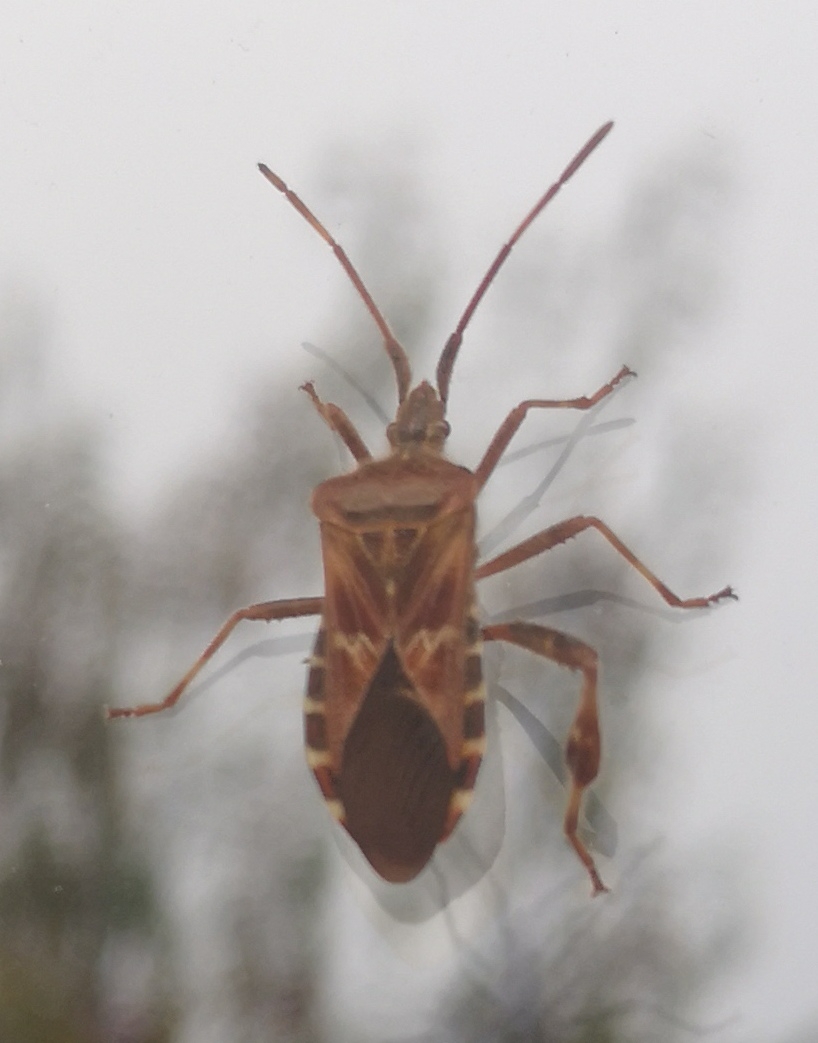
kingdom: Animalia
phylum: Arthropoda
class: Insecta
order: Hemiptera
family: Coreidae
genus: Leptoglossus
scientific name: Leptoglossus occidentalis
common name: Amerikansk fyrretæge
